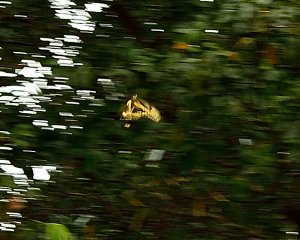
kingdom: Animalia
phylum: Arthropoda
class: Insecta
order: Lepidoptera
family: Papilionidae
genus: Papilio
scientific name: Papilio cresphontes
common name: Eastern Giant Swallowtail
